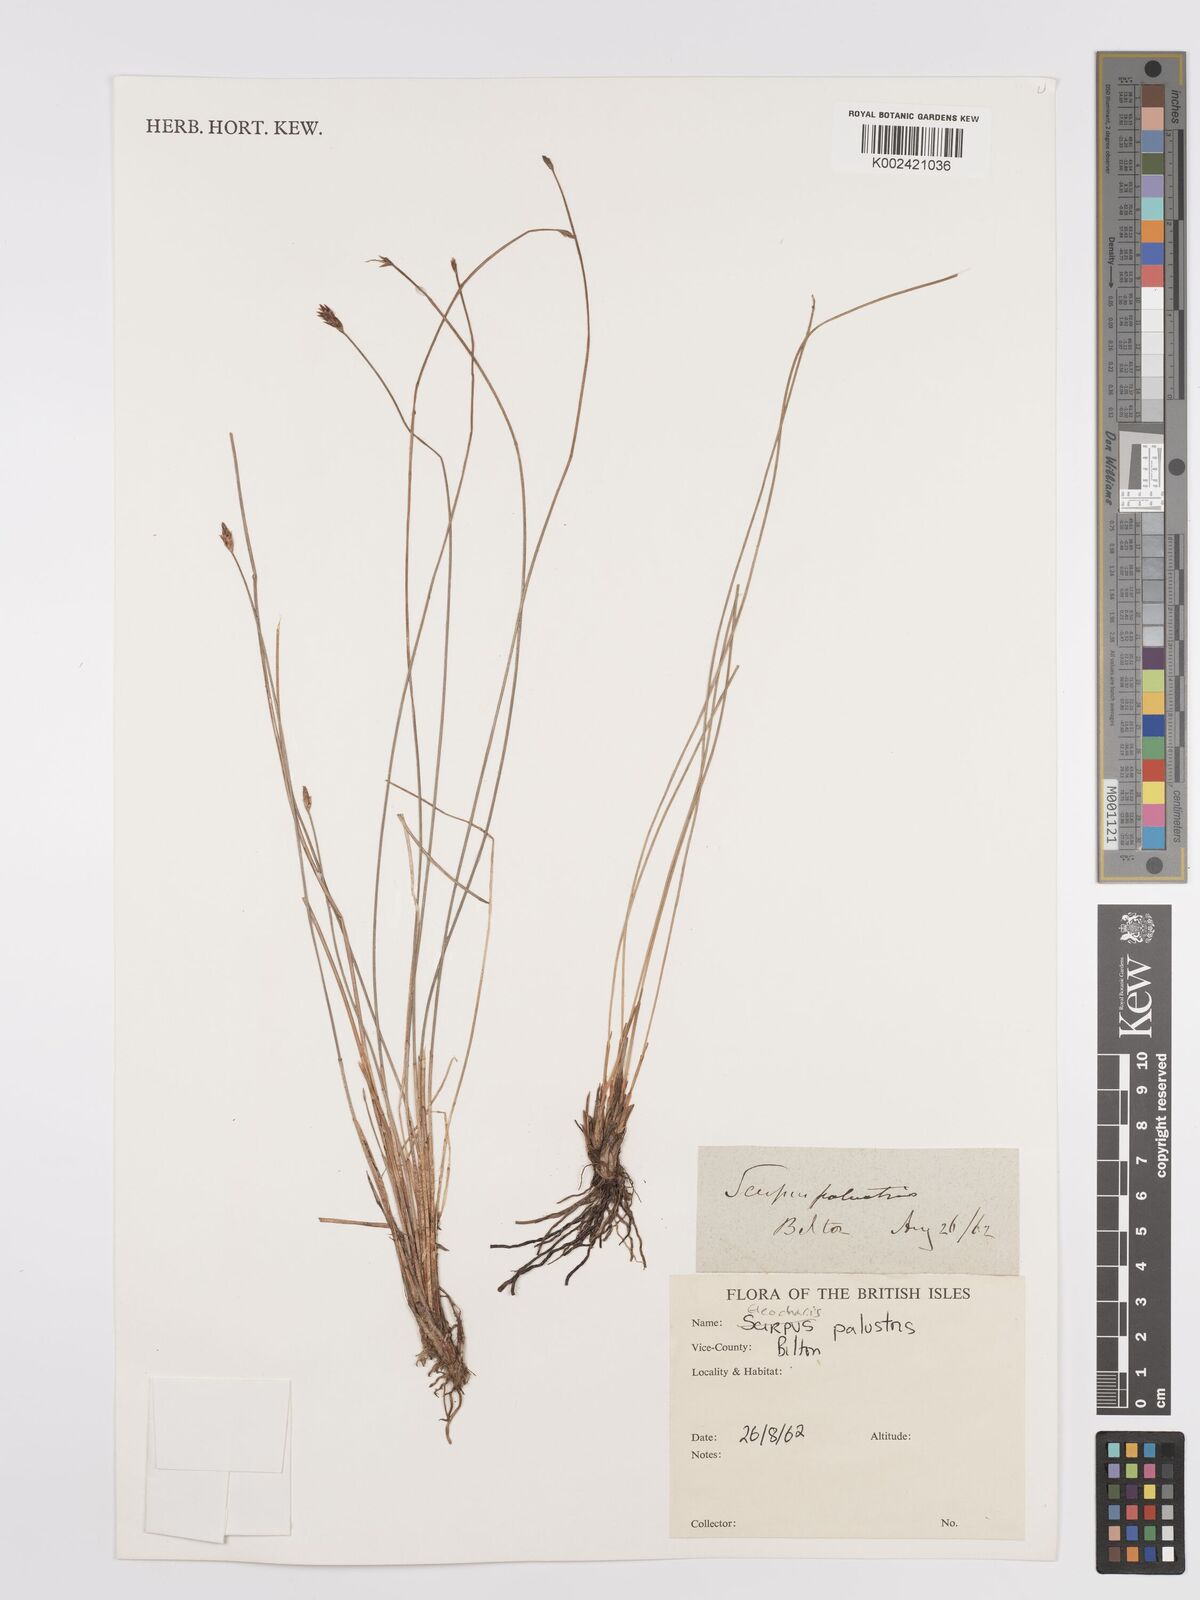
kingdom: Plantae
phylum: Tracheophyta
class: Liliopsida
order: Poales
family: Cyperaceae
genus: Eleocharis
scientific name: Eleocharis palustris
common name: Common spike-rush
